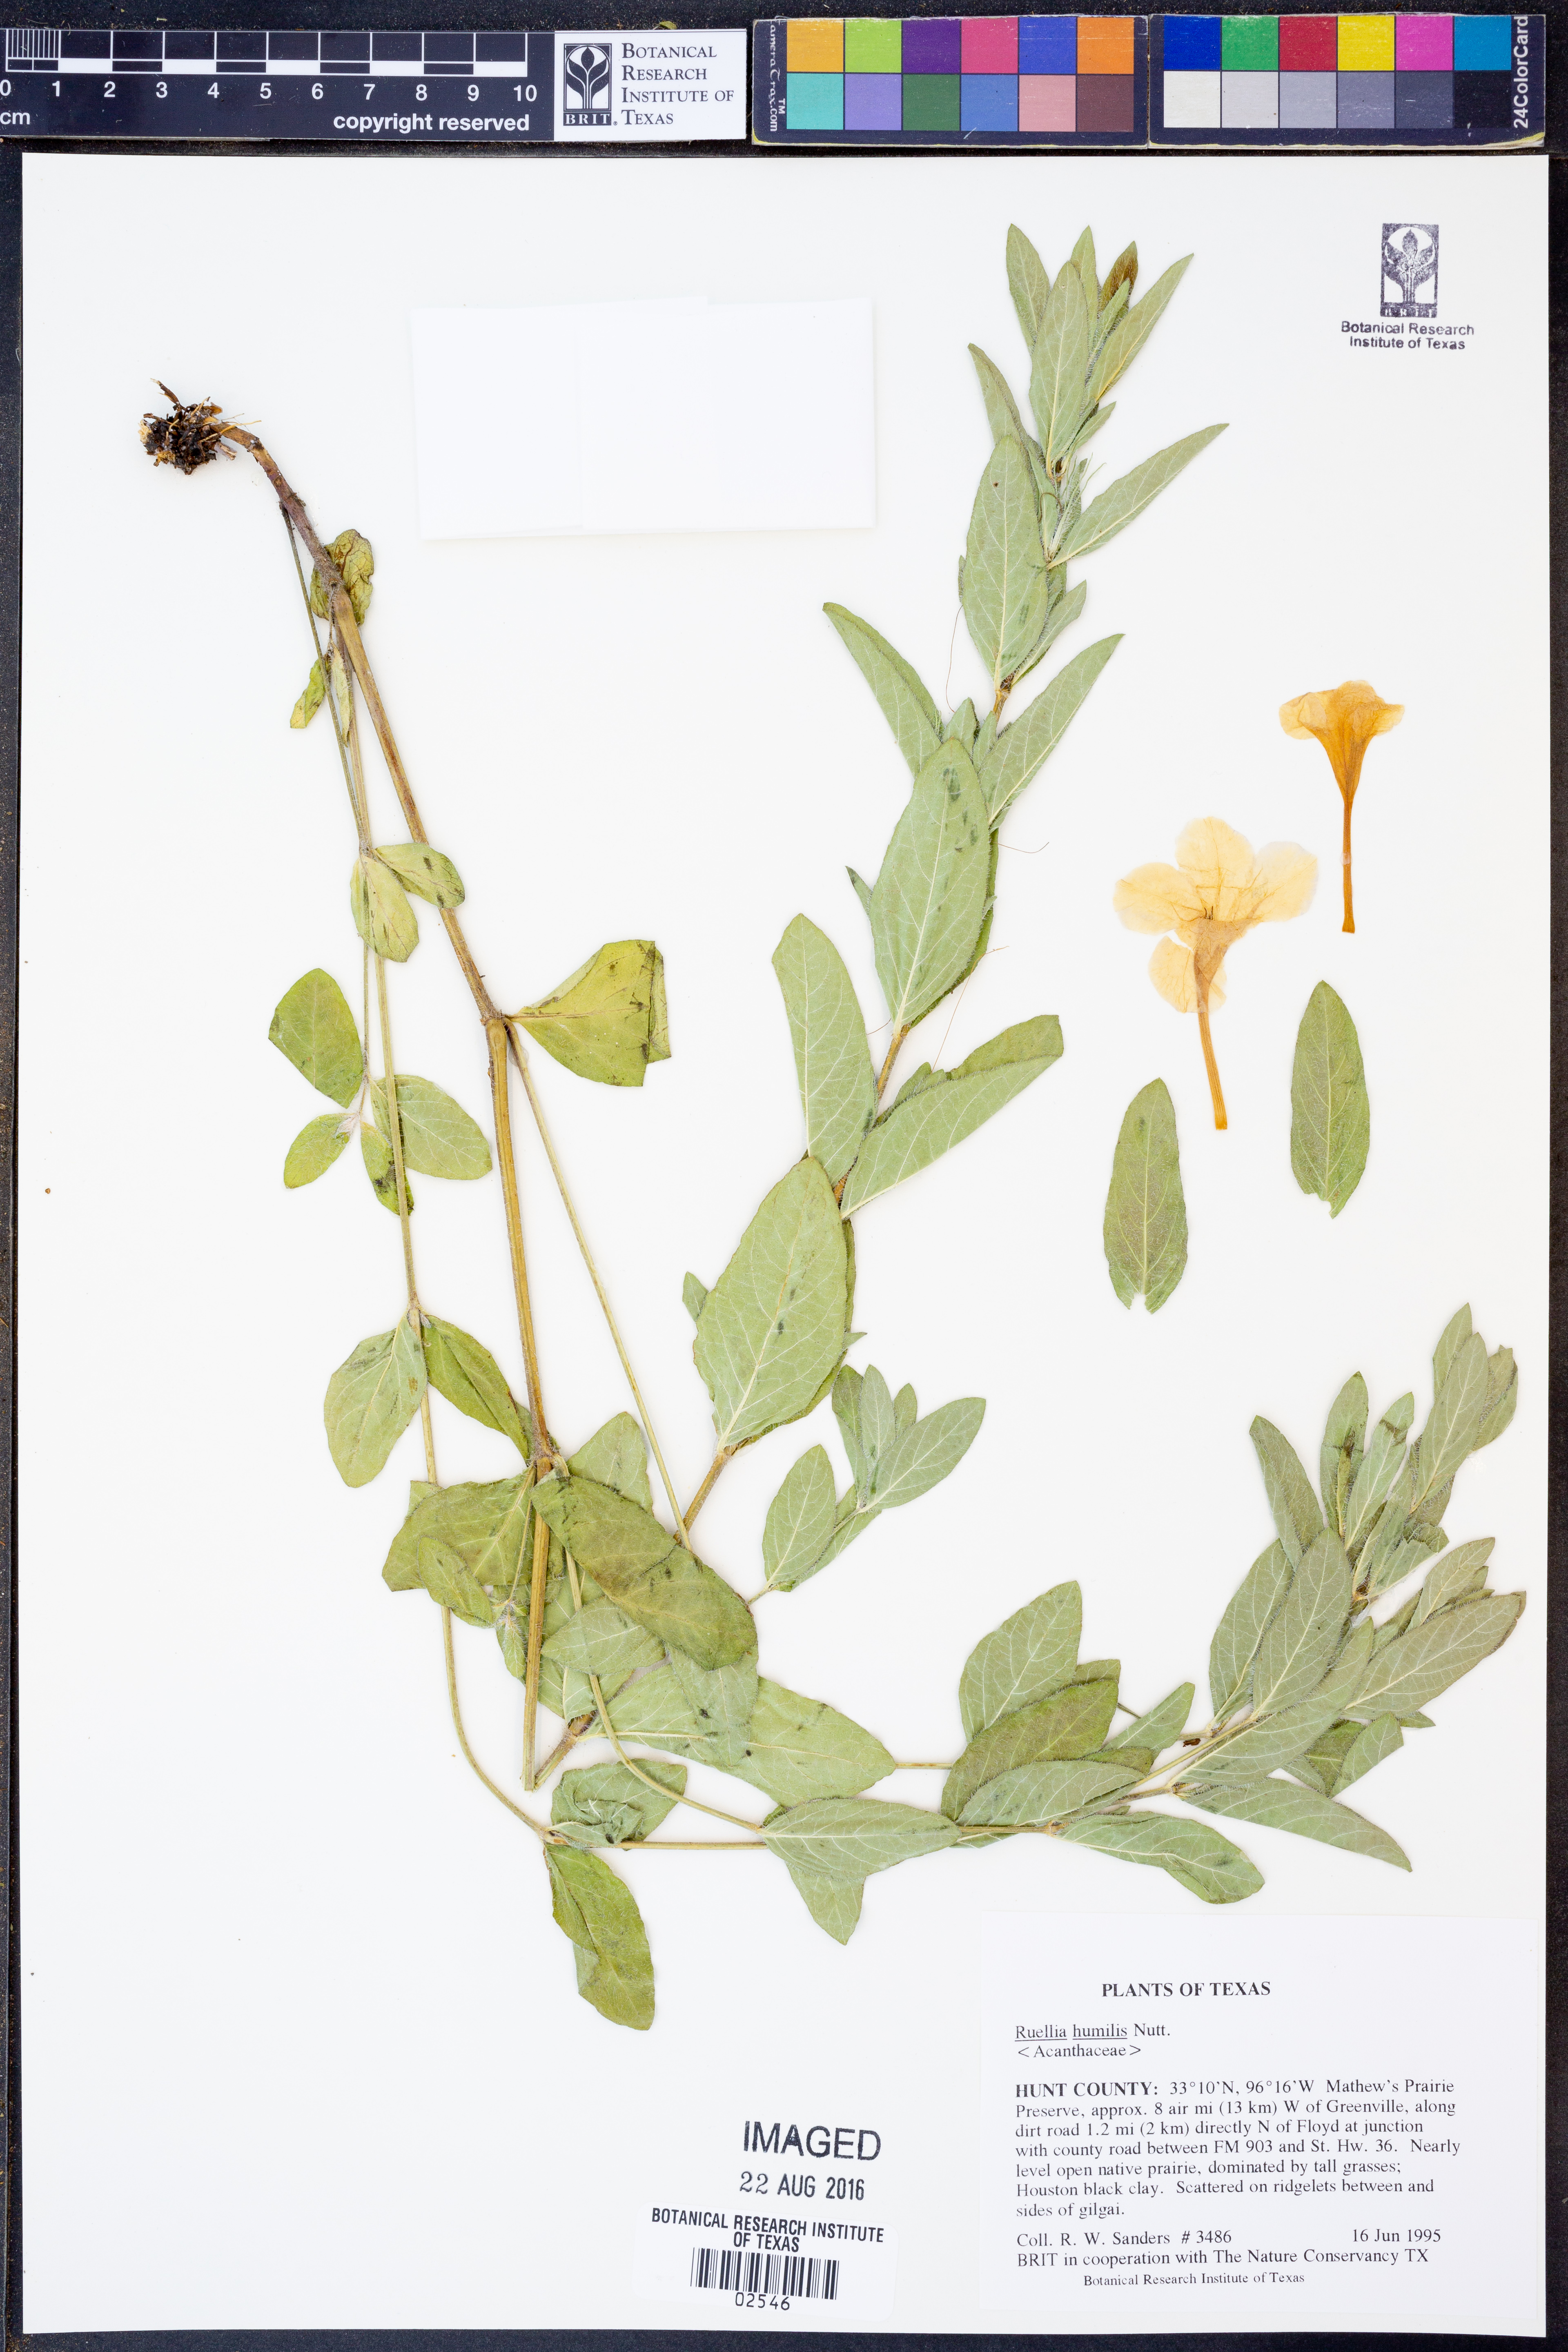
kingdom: Plantae
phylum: Tracheophyta
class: Magnoliopsida
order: Lamiales
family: Acanthaceae
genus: Ruellia
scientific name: Ruellia humilis
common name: Fringe-leaf ruellia
